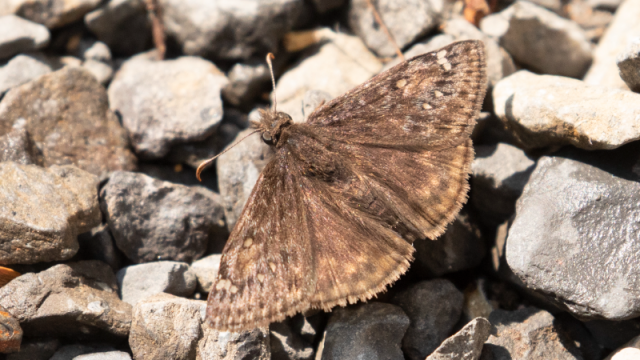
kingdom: Animalia
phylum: Arthropoda
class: Insecta
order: Lepidoptera
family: Hesperiidae
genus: Gesta
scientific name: Gesta
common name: Juvenal's Duskywing
